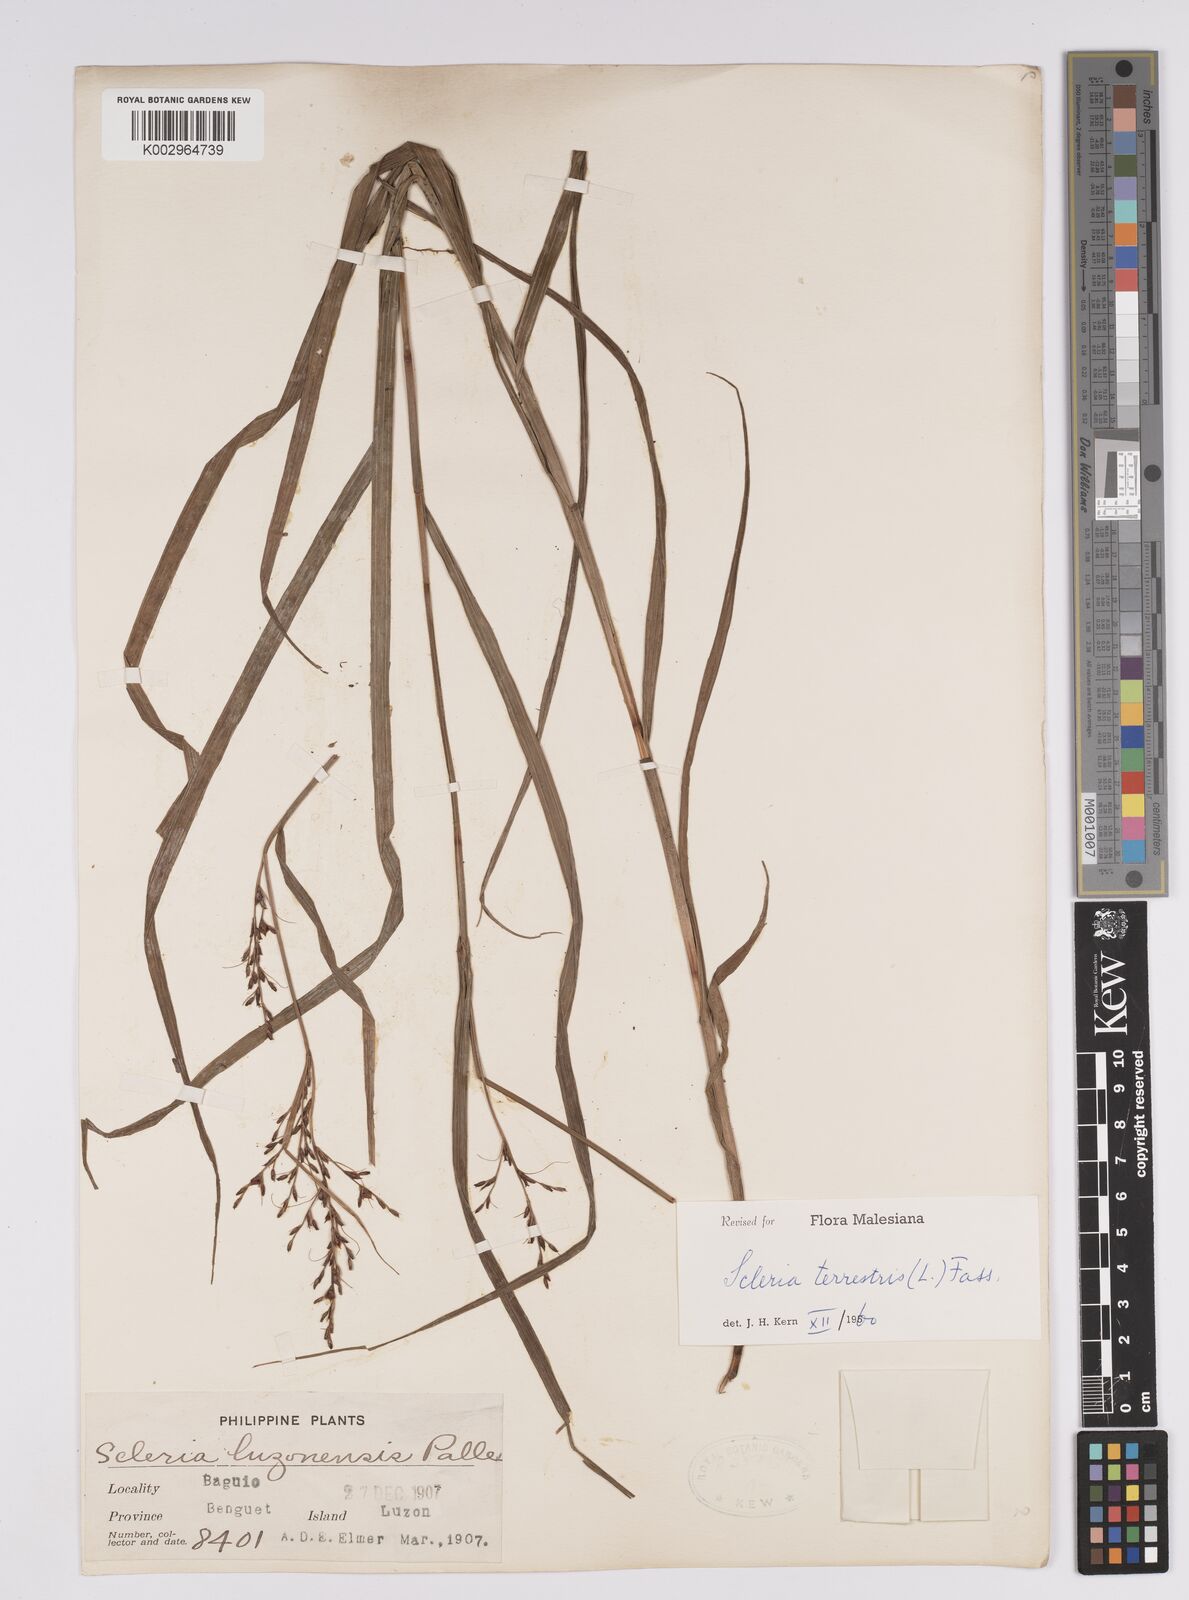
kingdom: Plantae
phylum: Tracheophyta
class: Liliopsida
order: Poales
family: Cyperaceae
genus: Scleria
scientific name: Scleria terrestris
